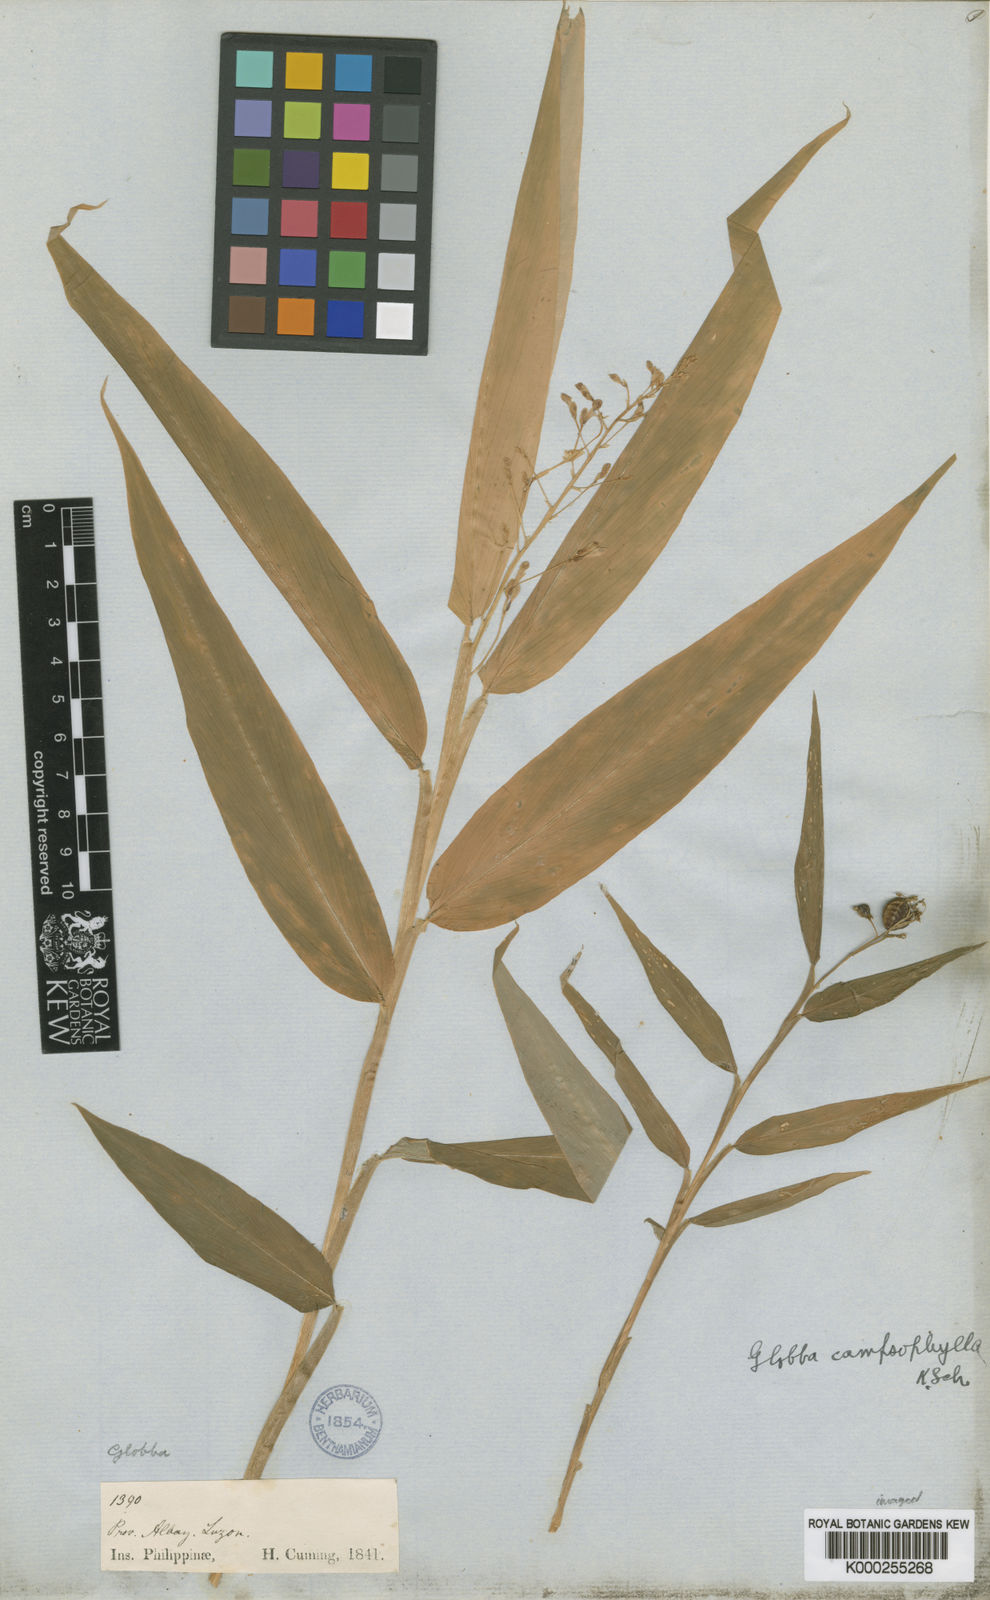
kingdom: Plantae
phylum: Tracheophyta
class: Liliopsida
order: Zingiberales
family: Zingiberaceae
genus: Globba
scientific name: Globba campsophylla
